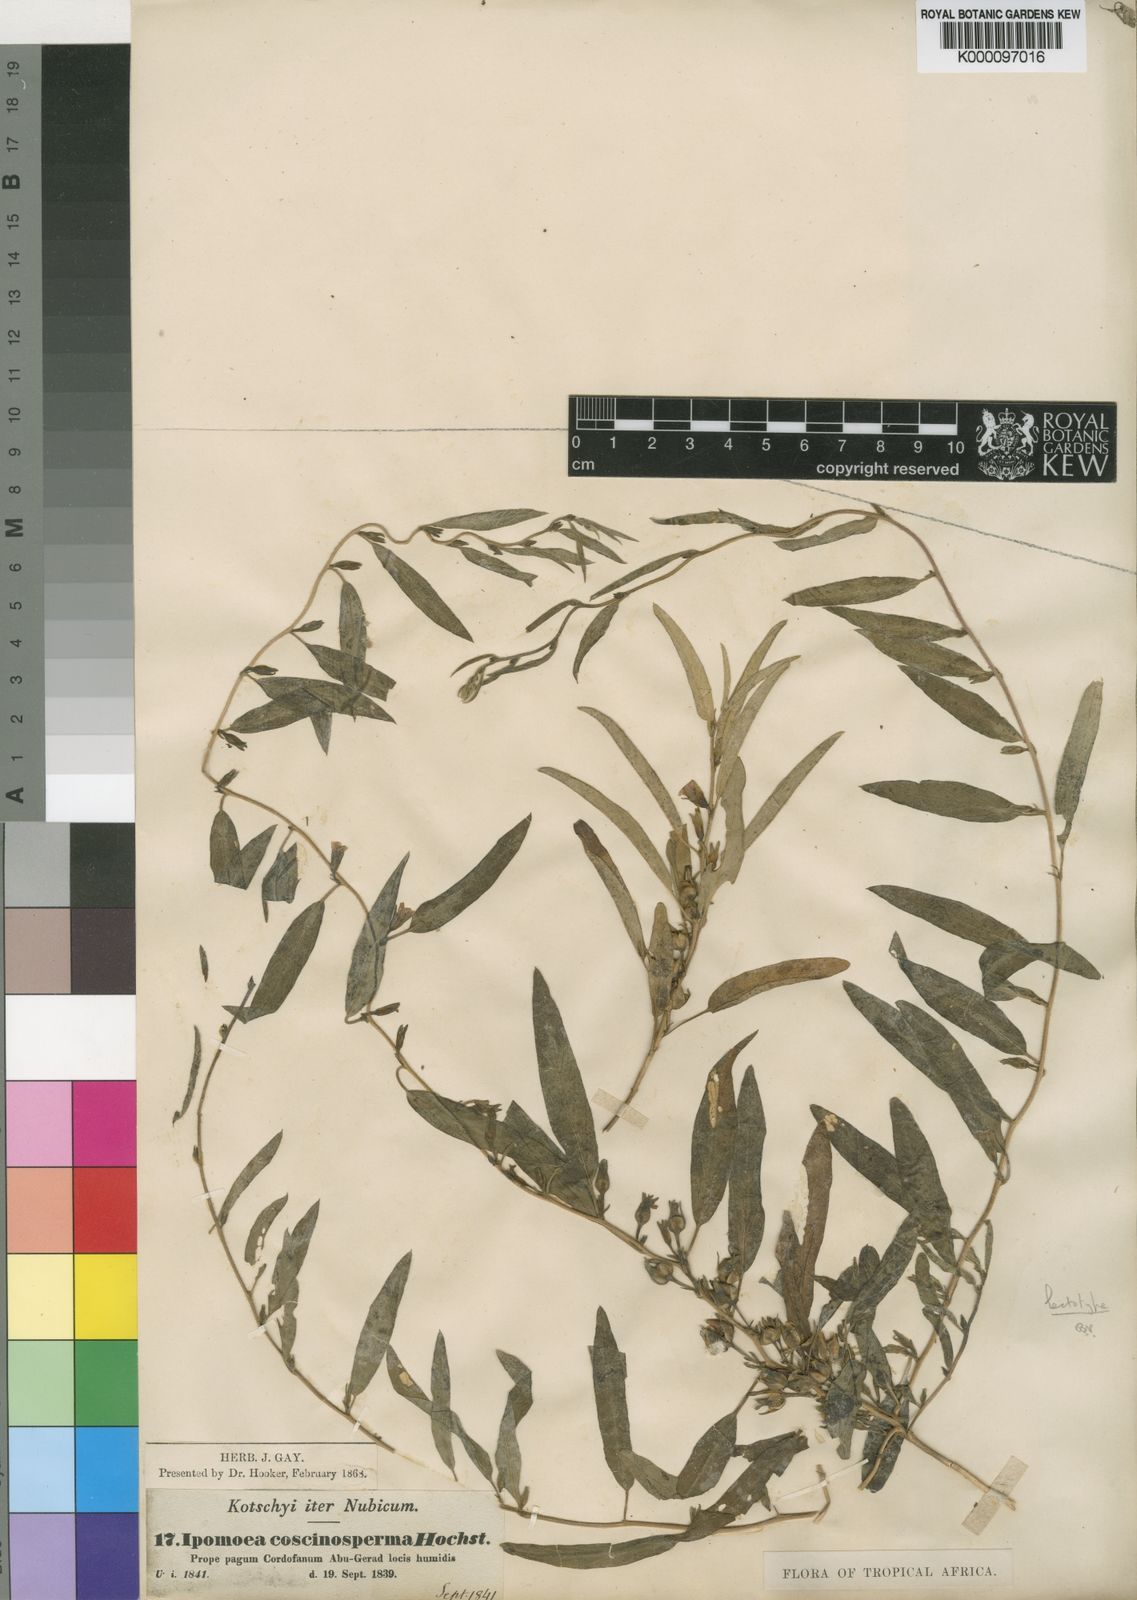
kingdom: Plantae
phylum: Tracheophyta
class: Magnoliopsida
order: Solanales
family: Convolvulaceae
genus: Ipomoea
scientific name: Ipomoea coscinosperma
